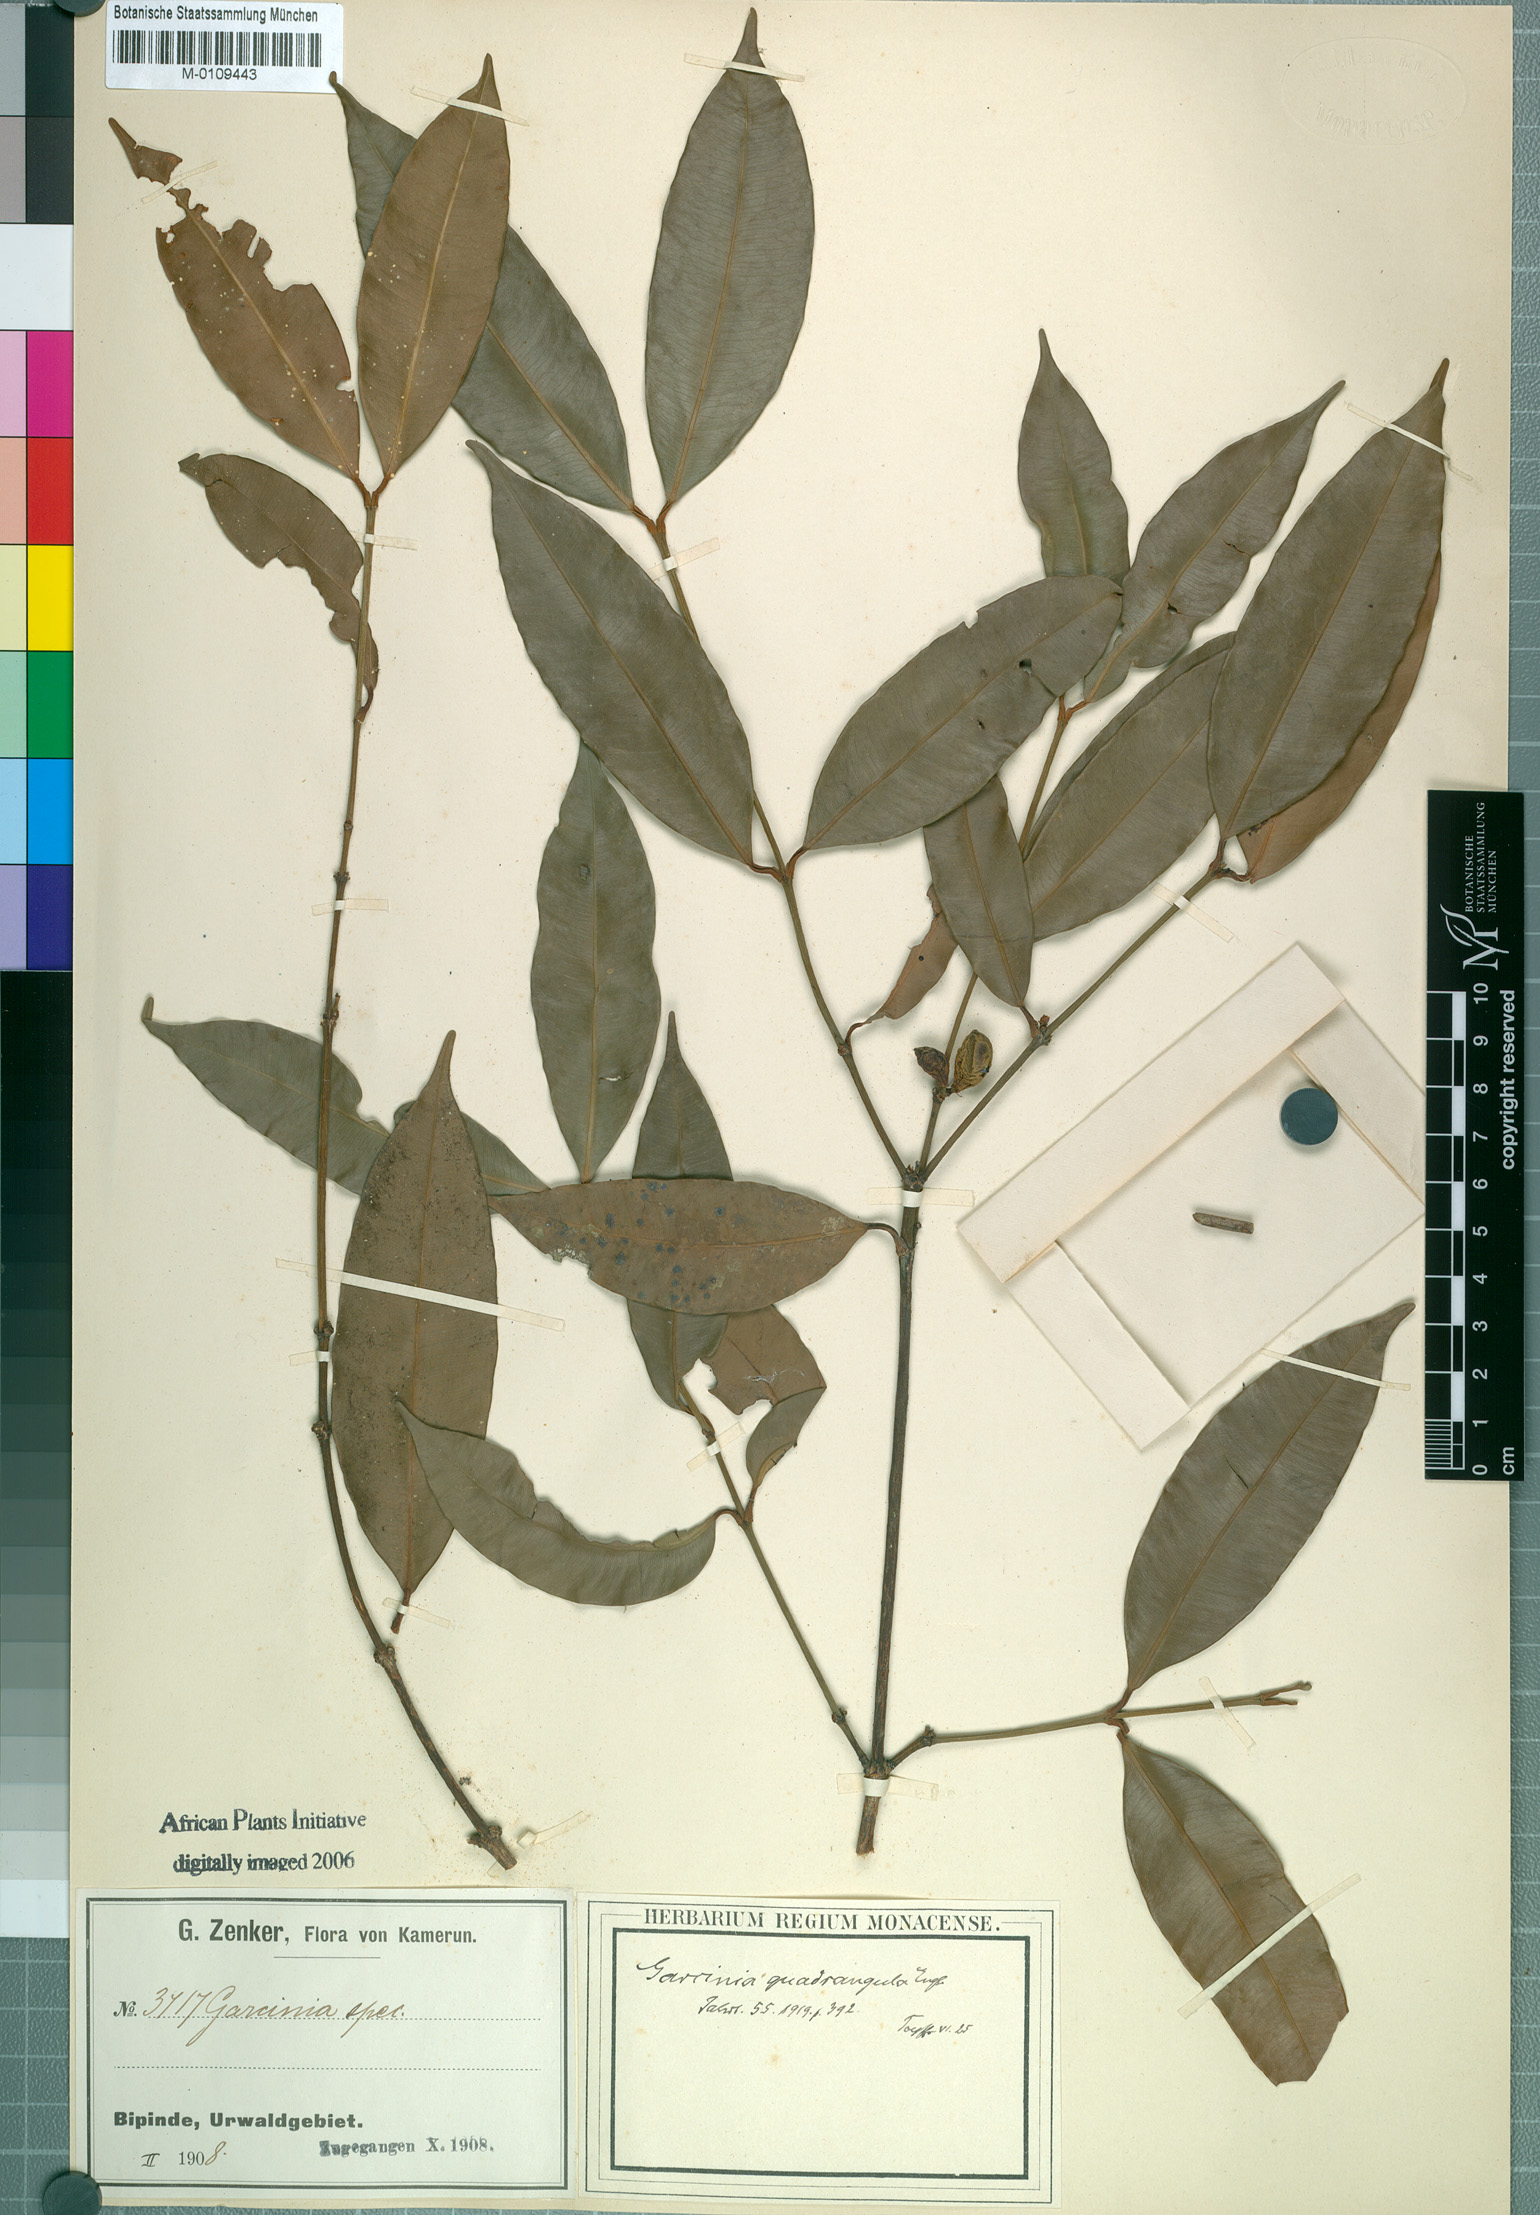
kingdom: Plantae
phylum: Tracheophyta
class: Magnoliopsida
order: Malpighiales
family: Clusiaceae
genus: Garcinia
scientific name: Garcinia ovalifolia
